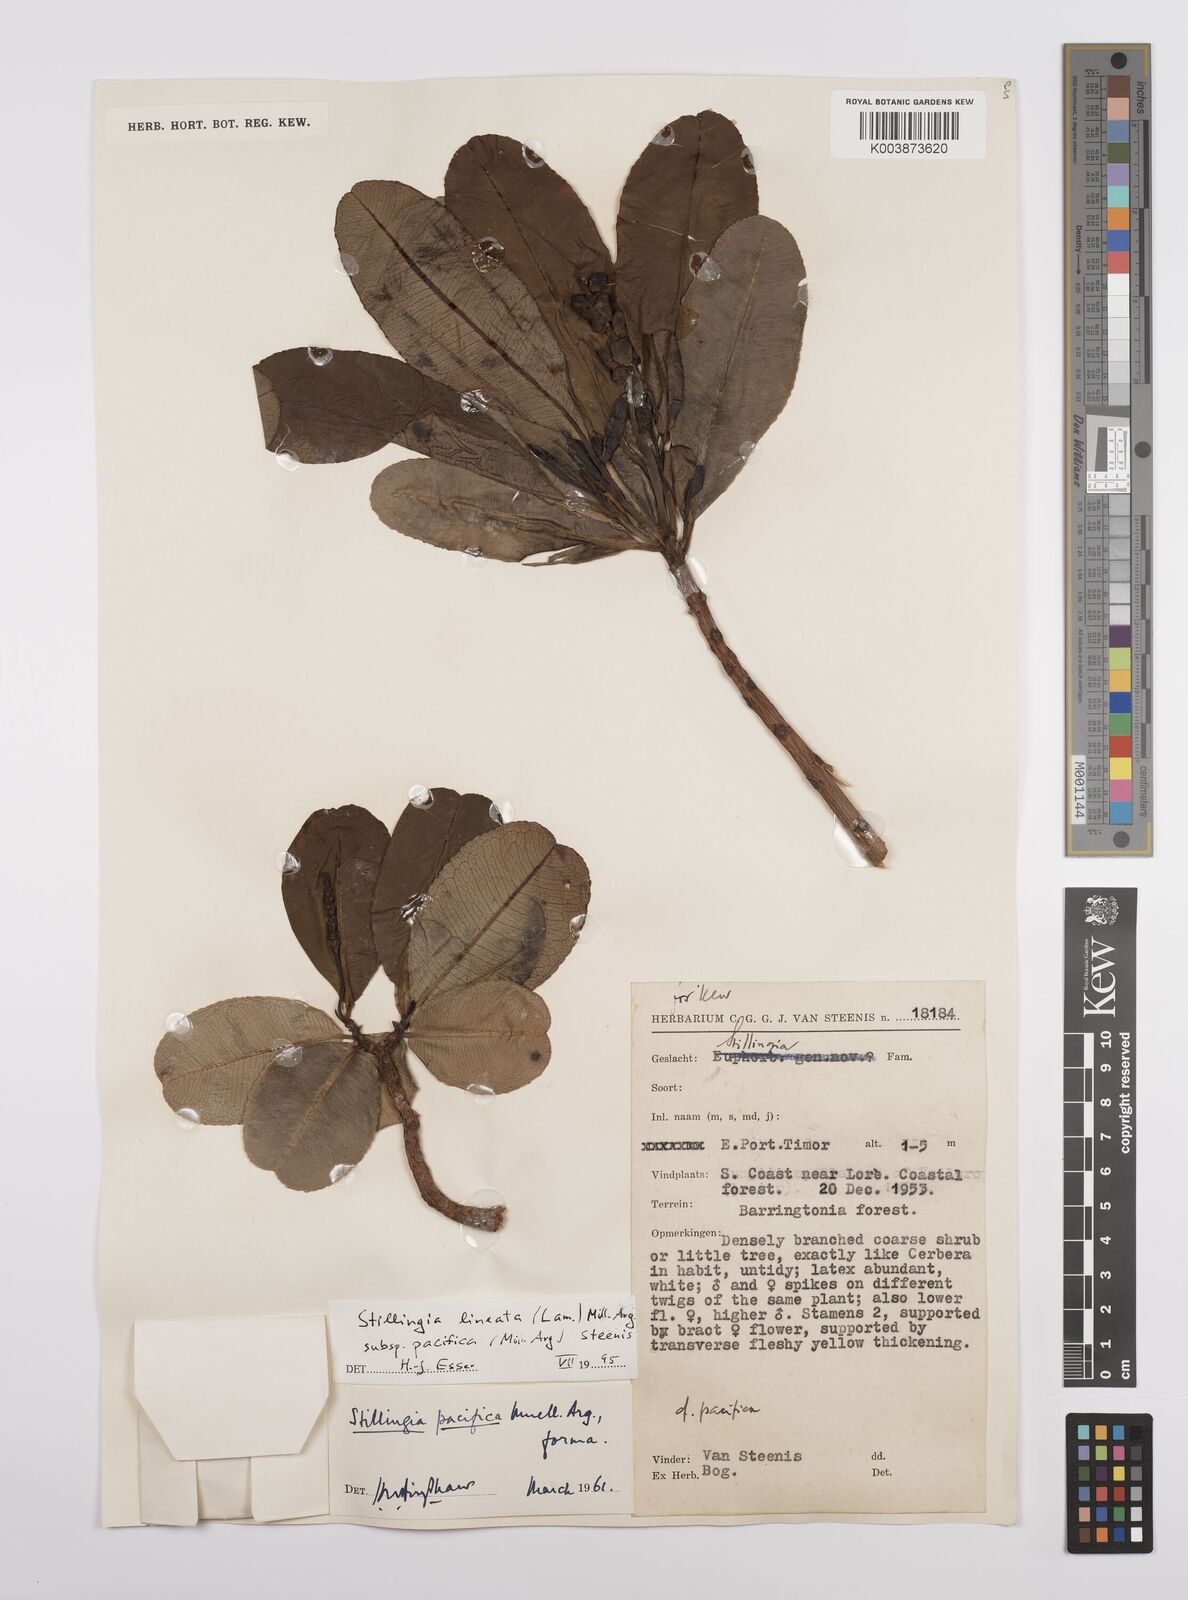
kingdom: Plantae
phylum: Tracheophyta
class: Magnoliopsida
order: Malpighiales
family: Euphorbiaceae
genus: Stillingia
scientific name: Stillingia lineata
